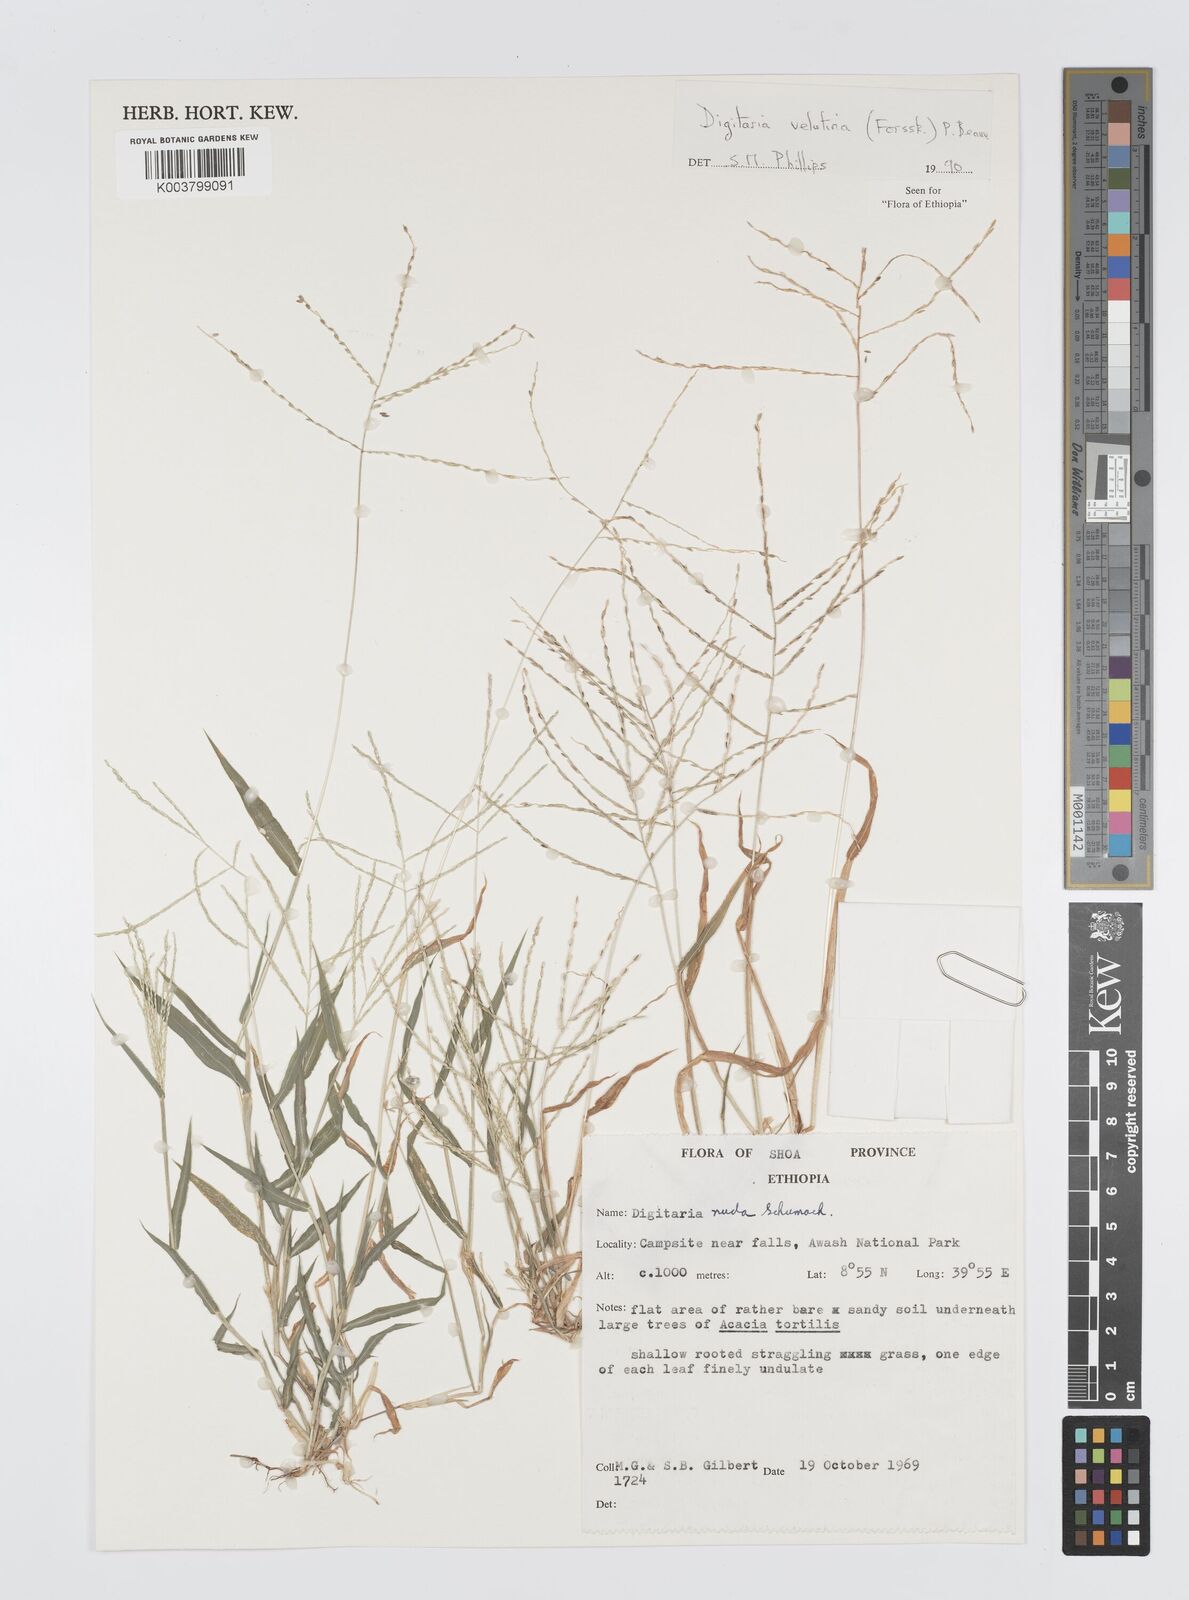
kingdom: Plantae
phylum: Tracheophyta
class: Liliopsida
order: Poales
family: Poaceae
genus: Digitaria
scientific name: Digitaria velutina
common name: Long-plume finger grass
